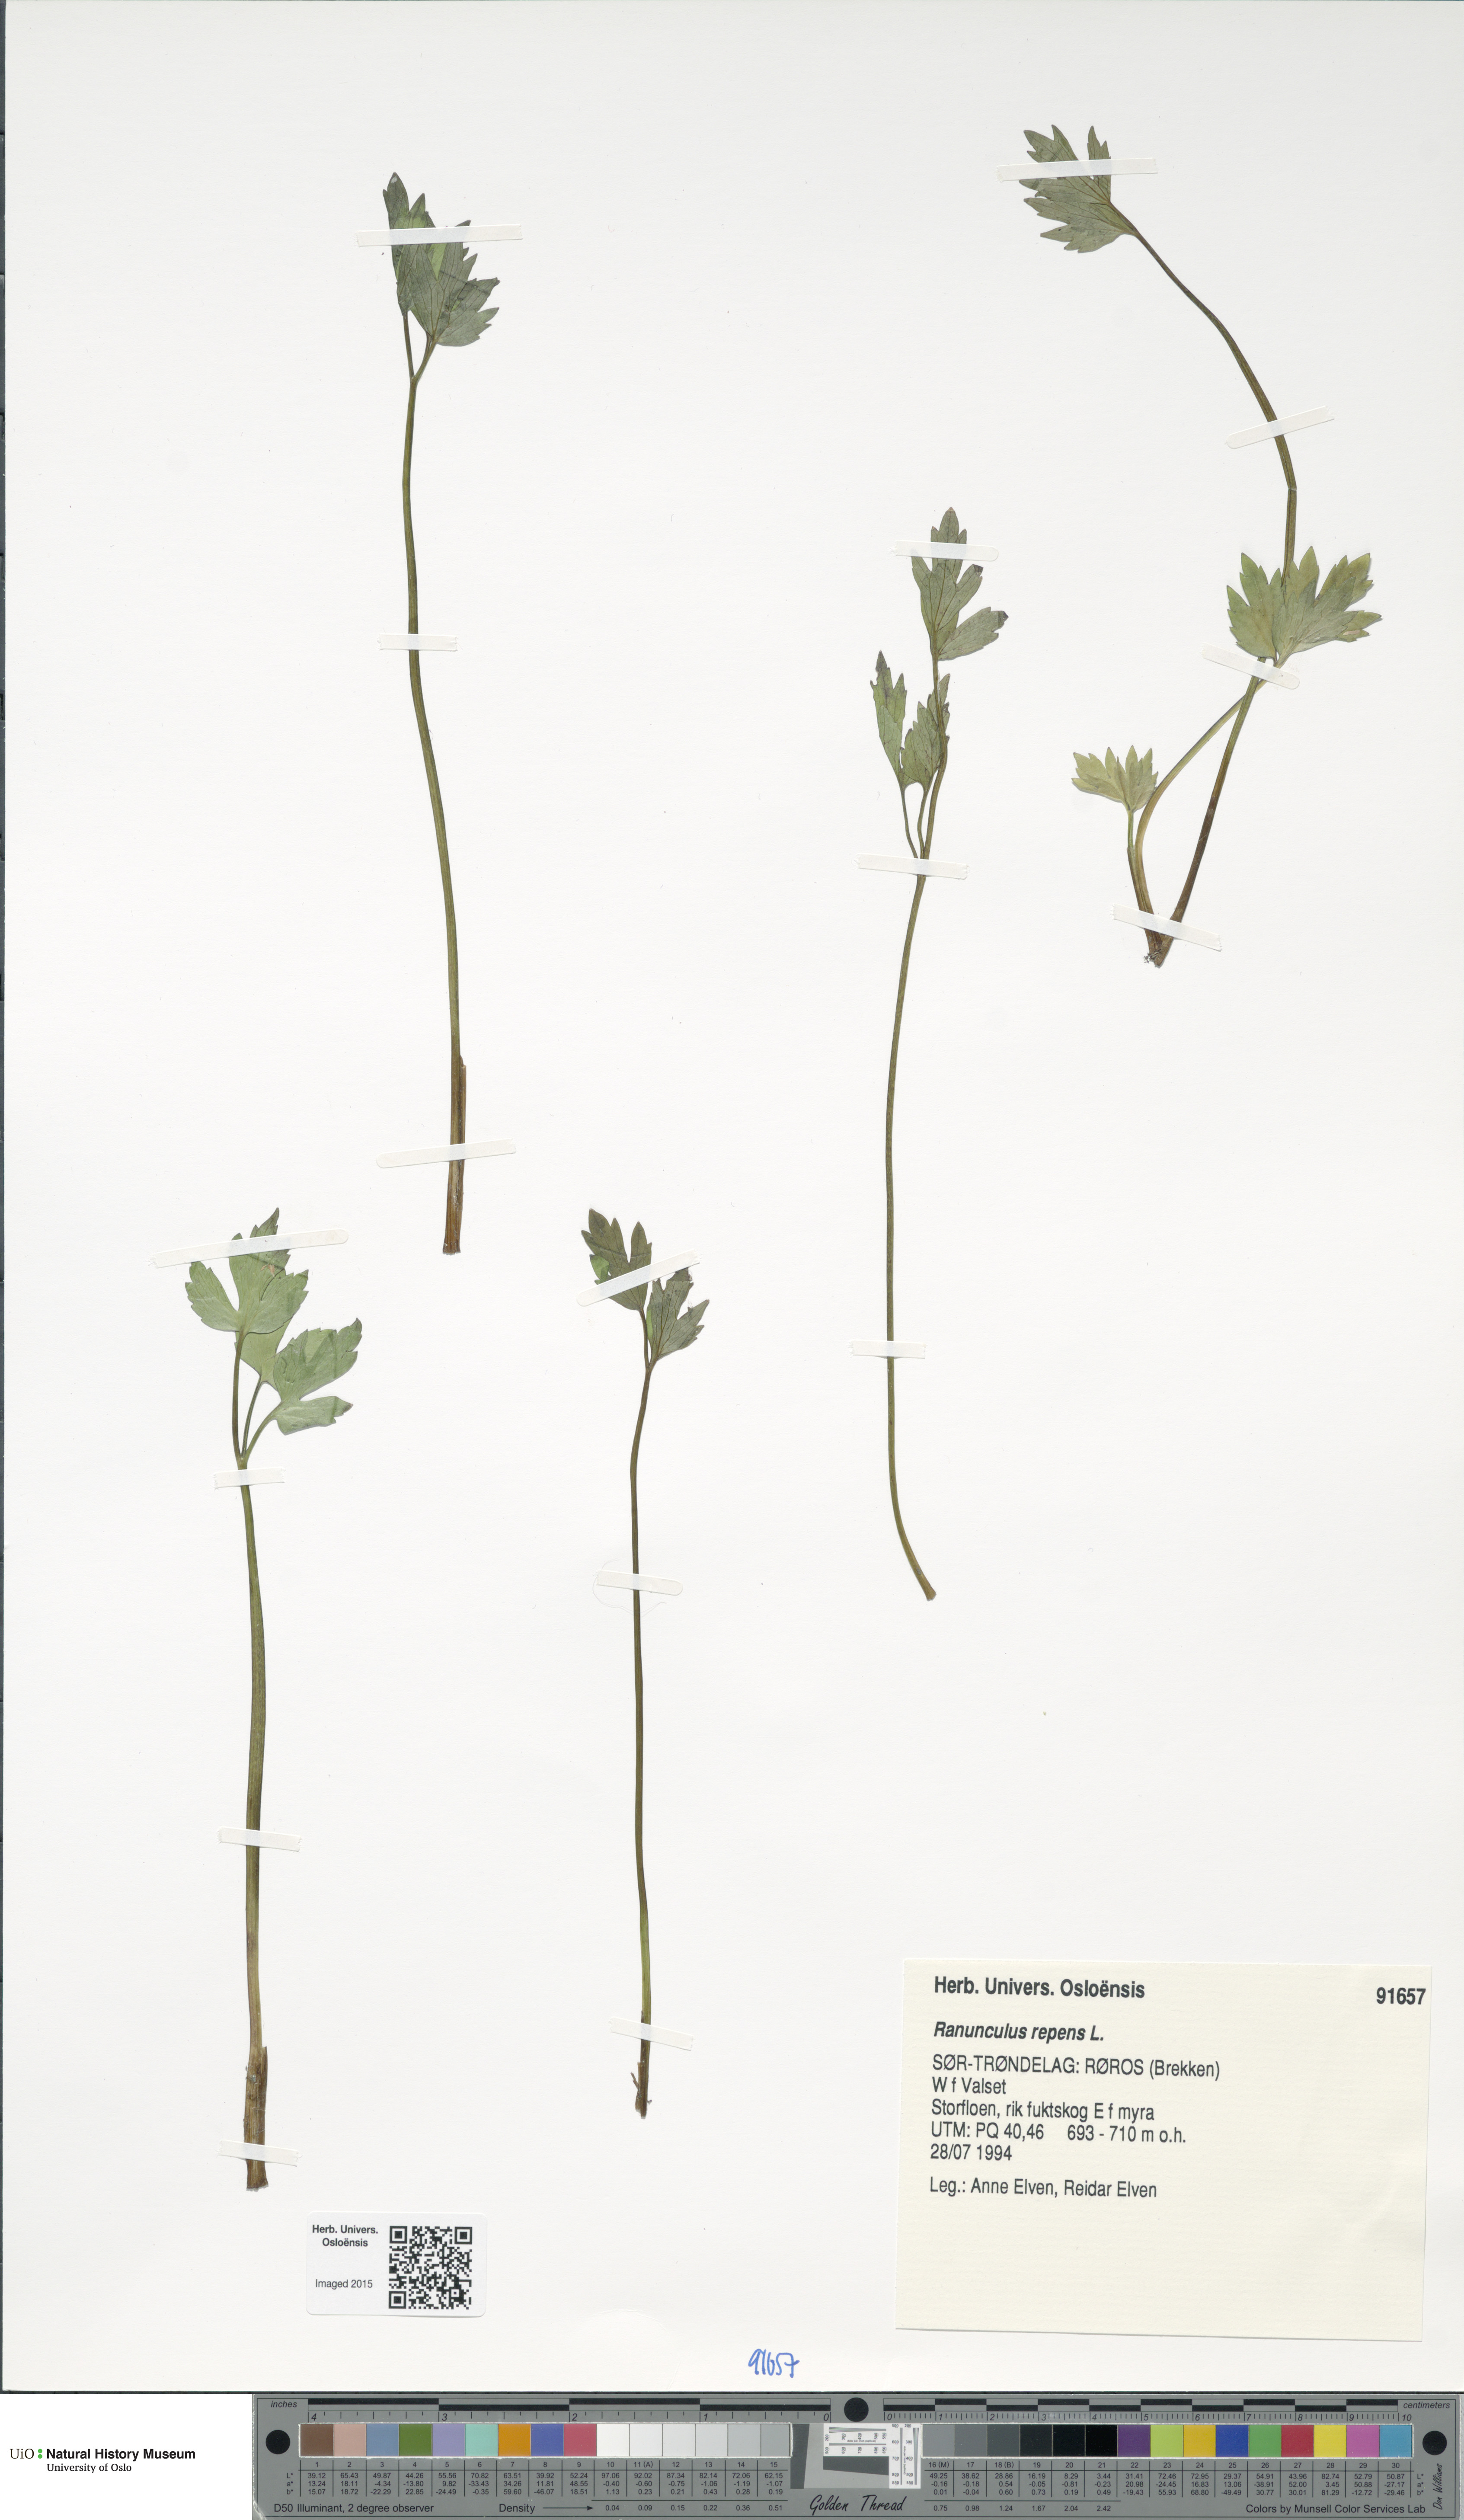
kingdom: Plantae
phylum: Tracheophyta
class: Magnoliopsida
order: Ranunculales
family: Ranunculaceae
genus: Ranunculus
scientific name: Ranunculus repens
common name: Creeping buttercup
